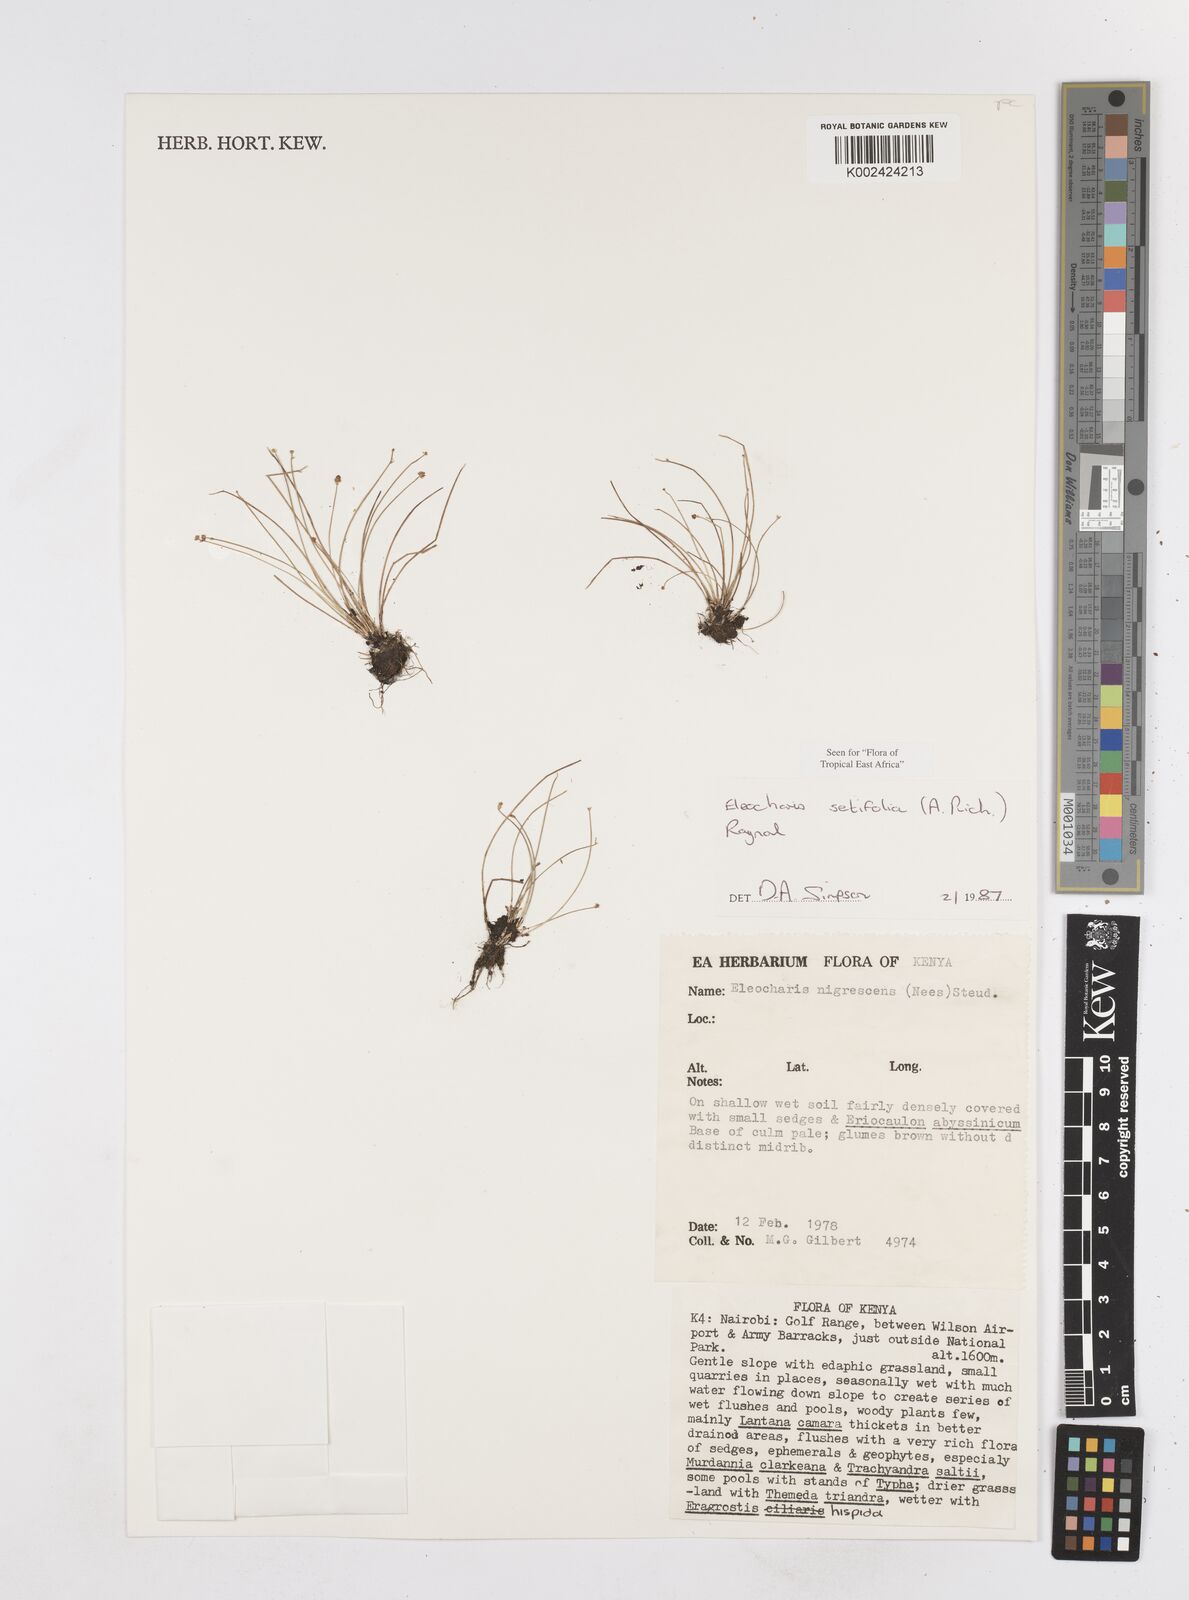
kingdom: Plantae
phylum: Tracheophyta
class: Liliopsida
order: Poales
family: Cyperaceae
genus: Eleocharis
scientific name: Eleocharis setifolia
